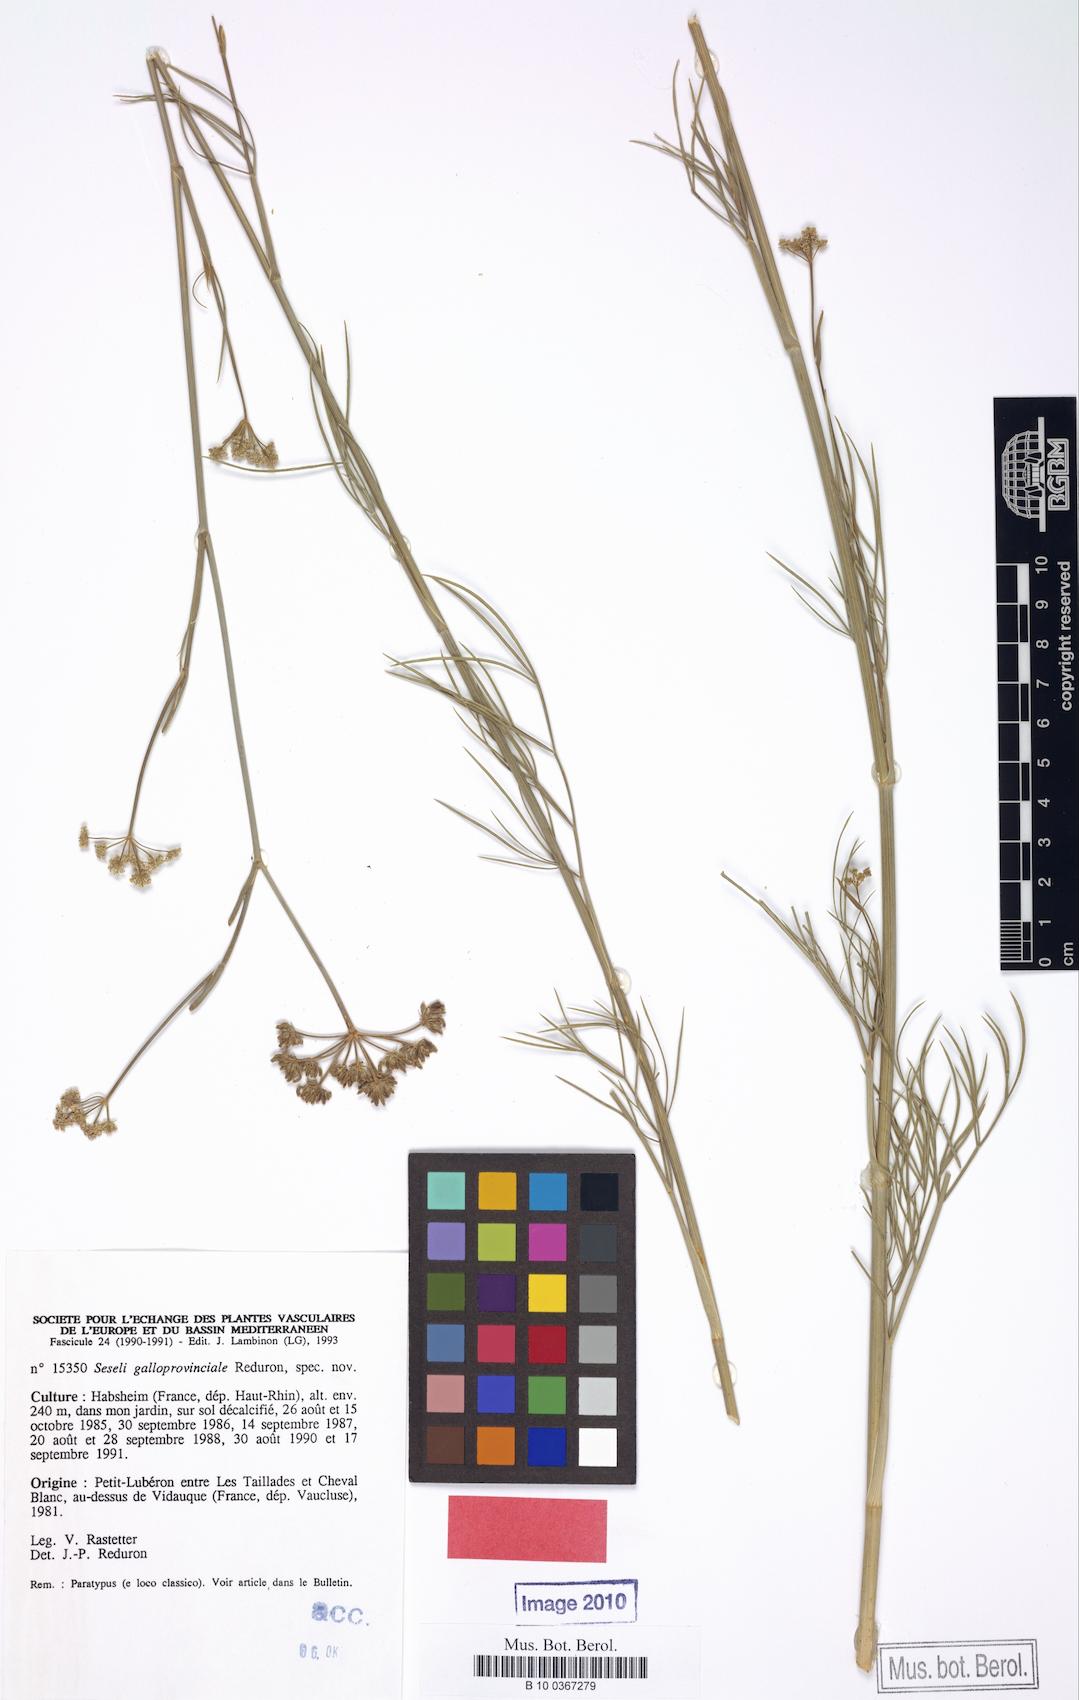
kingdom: Plantae
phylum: Tracheophyta
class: Magnoliopsida
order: Apiales
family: Apiaceae
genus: Seseli
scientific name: Seseli galloprovinciale
